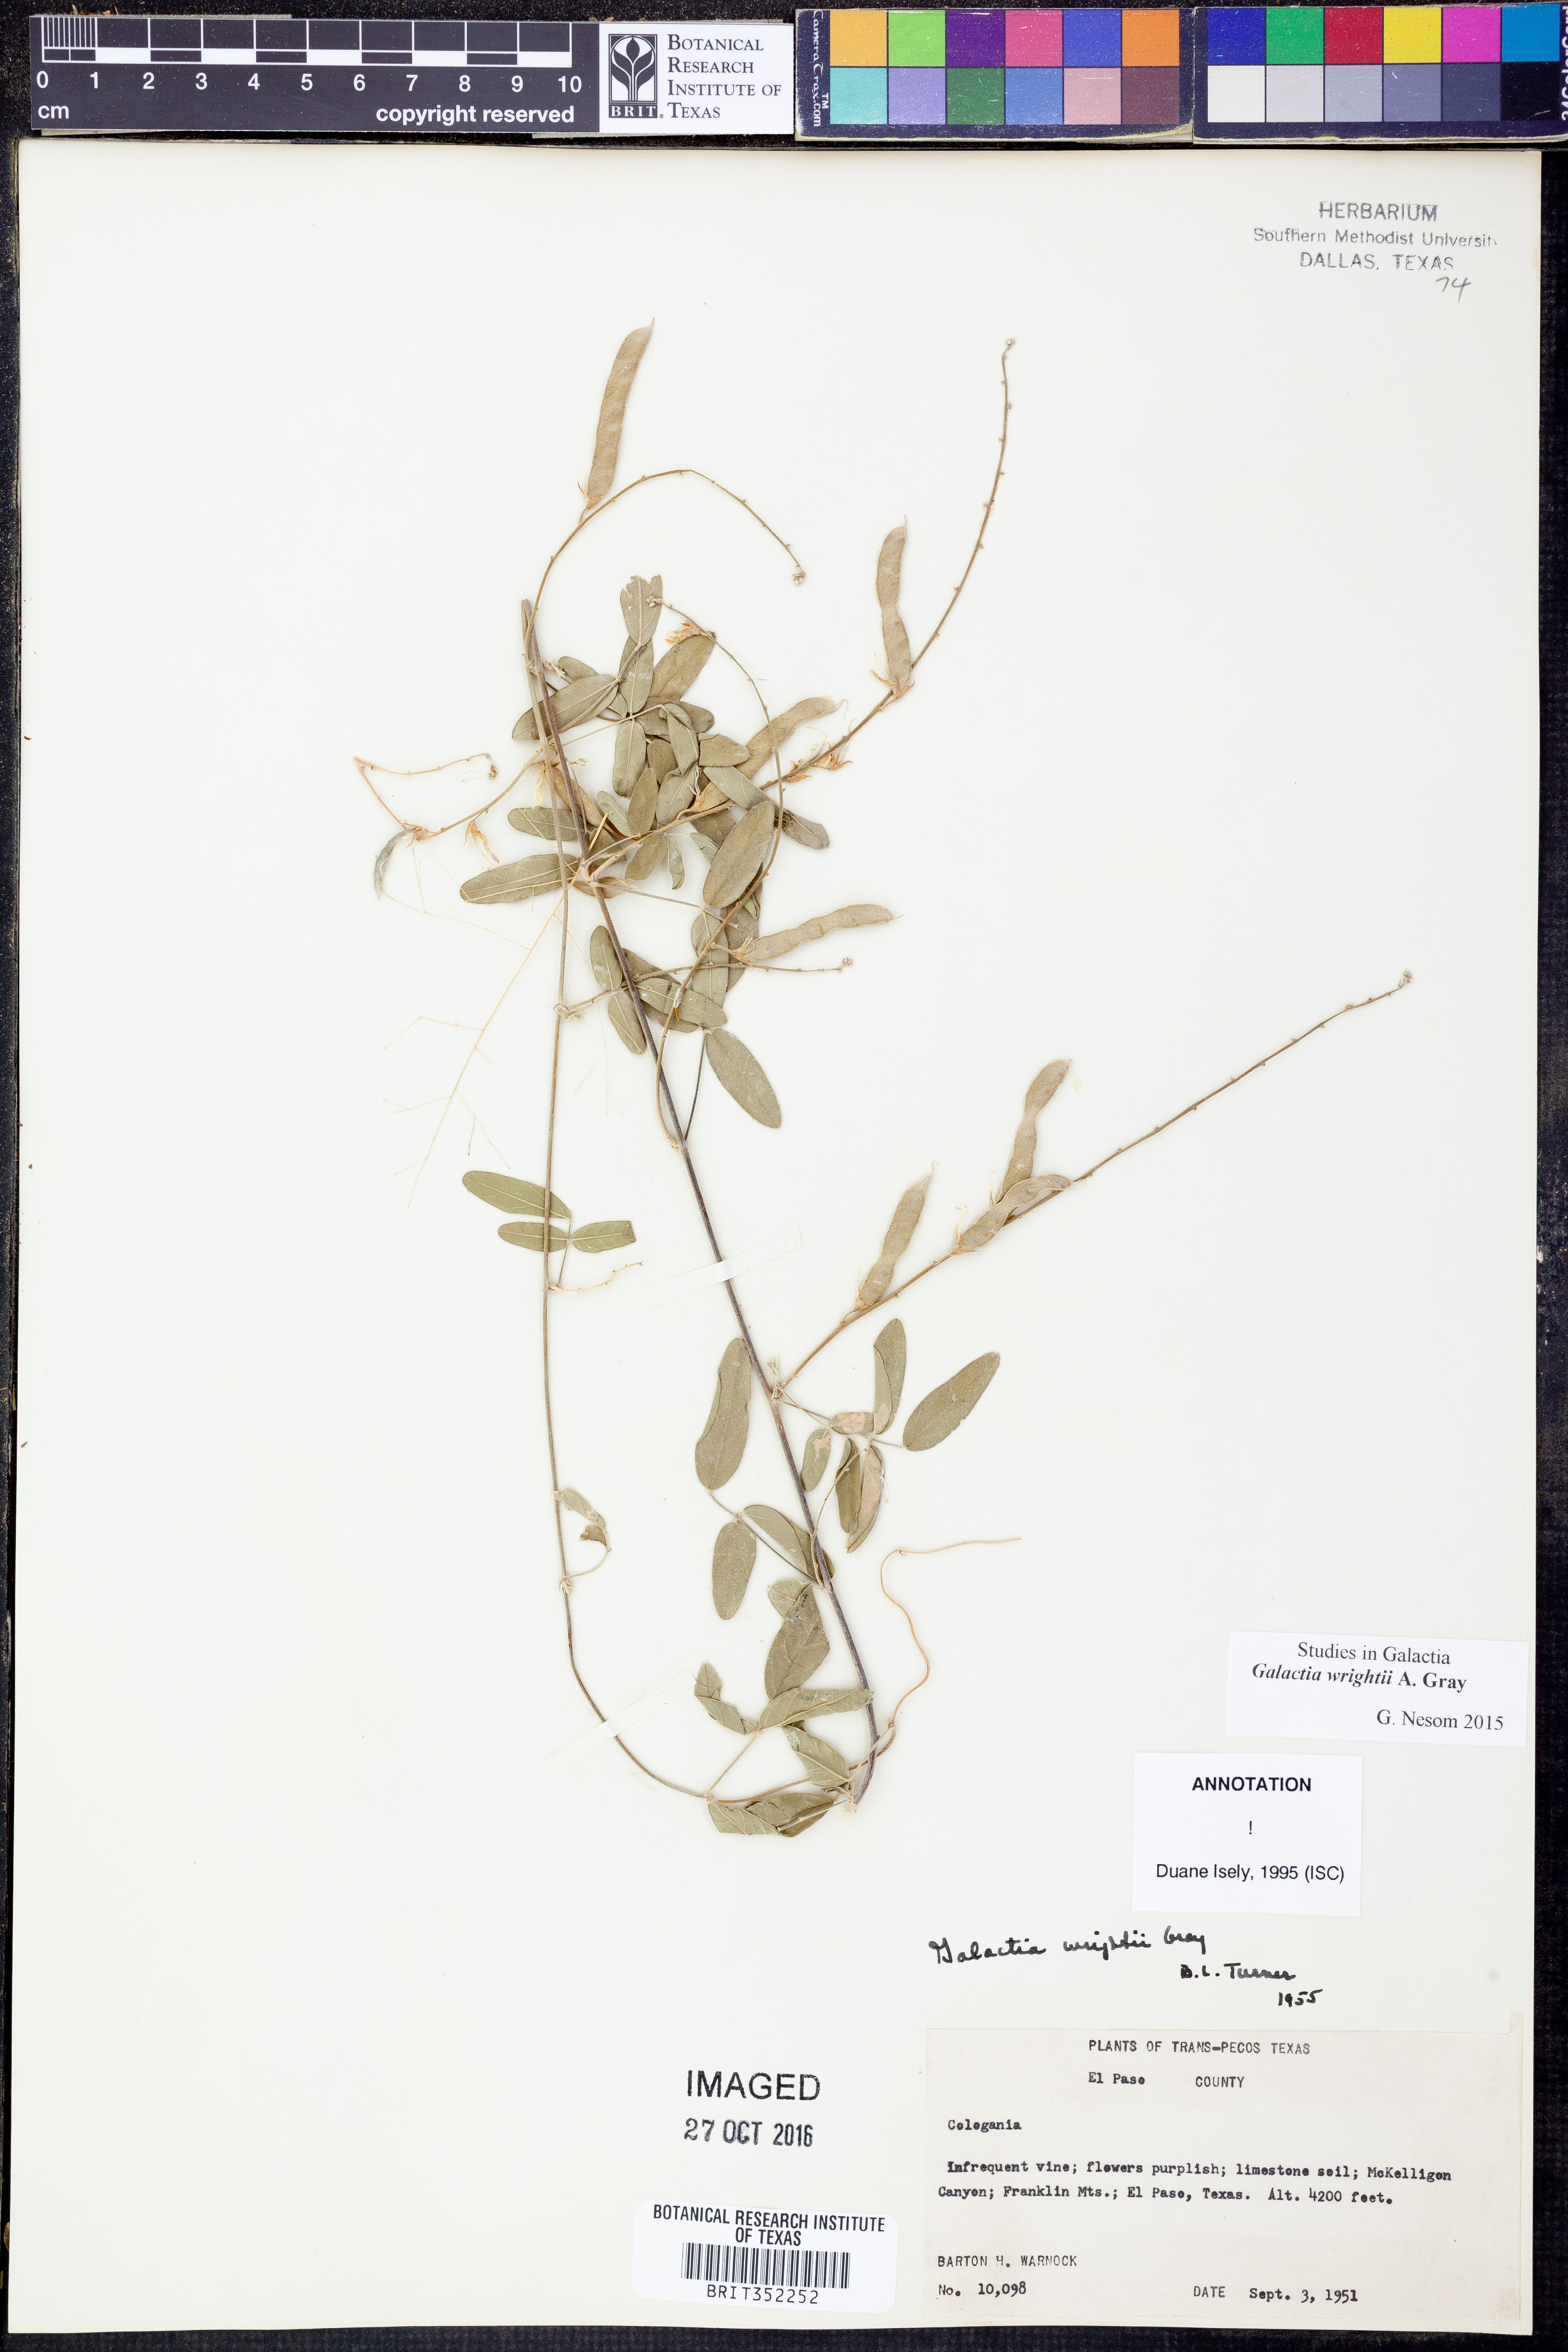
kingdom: Plantae
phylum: Tracheophyta
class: Magnoliopsida
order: Fabales
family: Fabaceae
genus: Galactia
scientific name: Galactia wrightii
